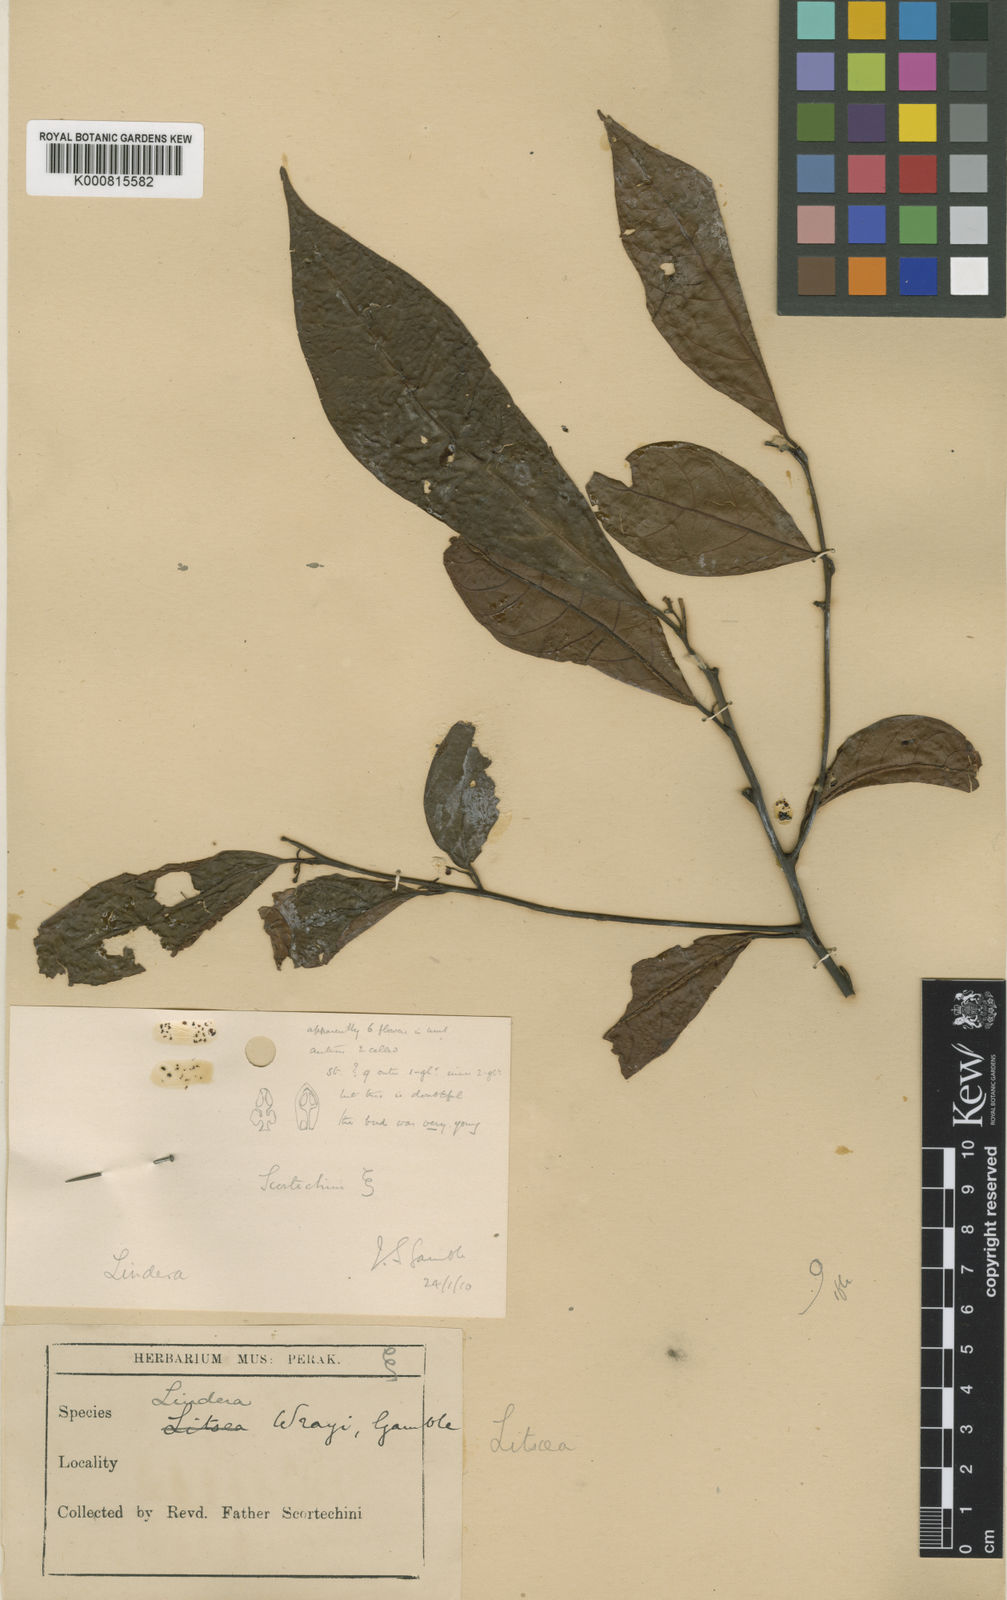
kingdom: Plantae
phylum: Tracheophyta
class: Magnoliopsida
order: Laurales
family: Lauraceae
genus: Lindera
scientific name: Lindera wrayi
